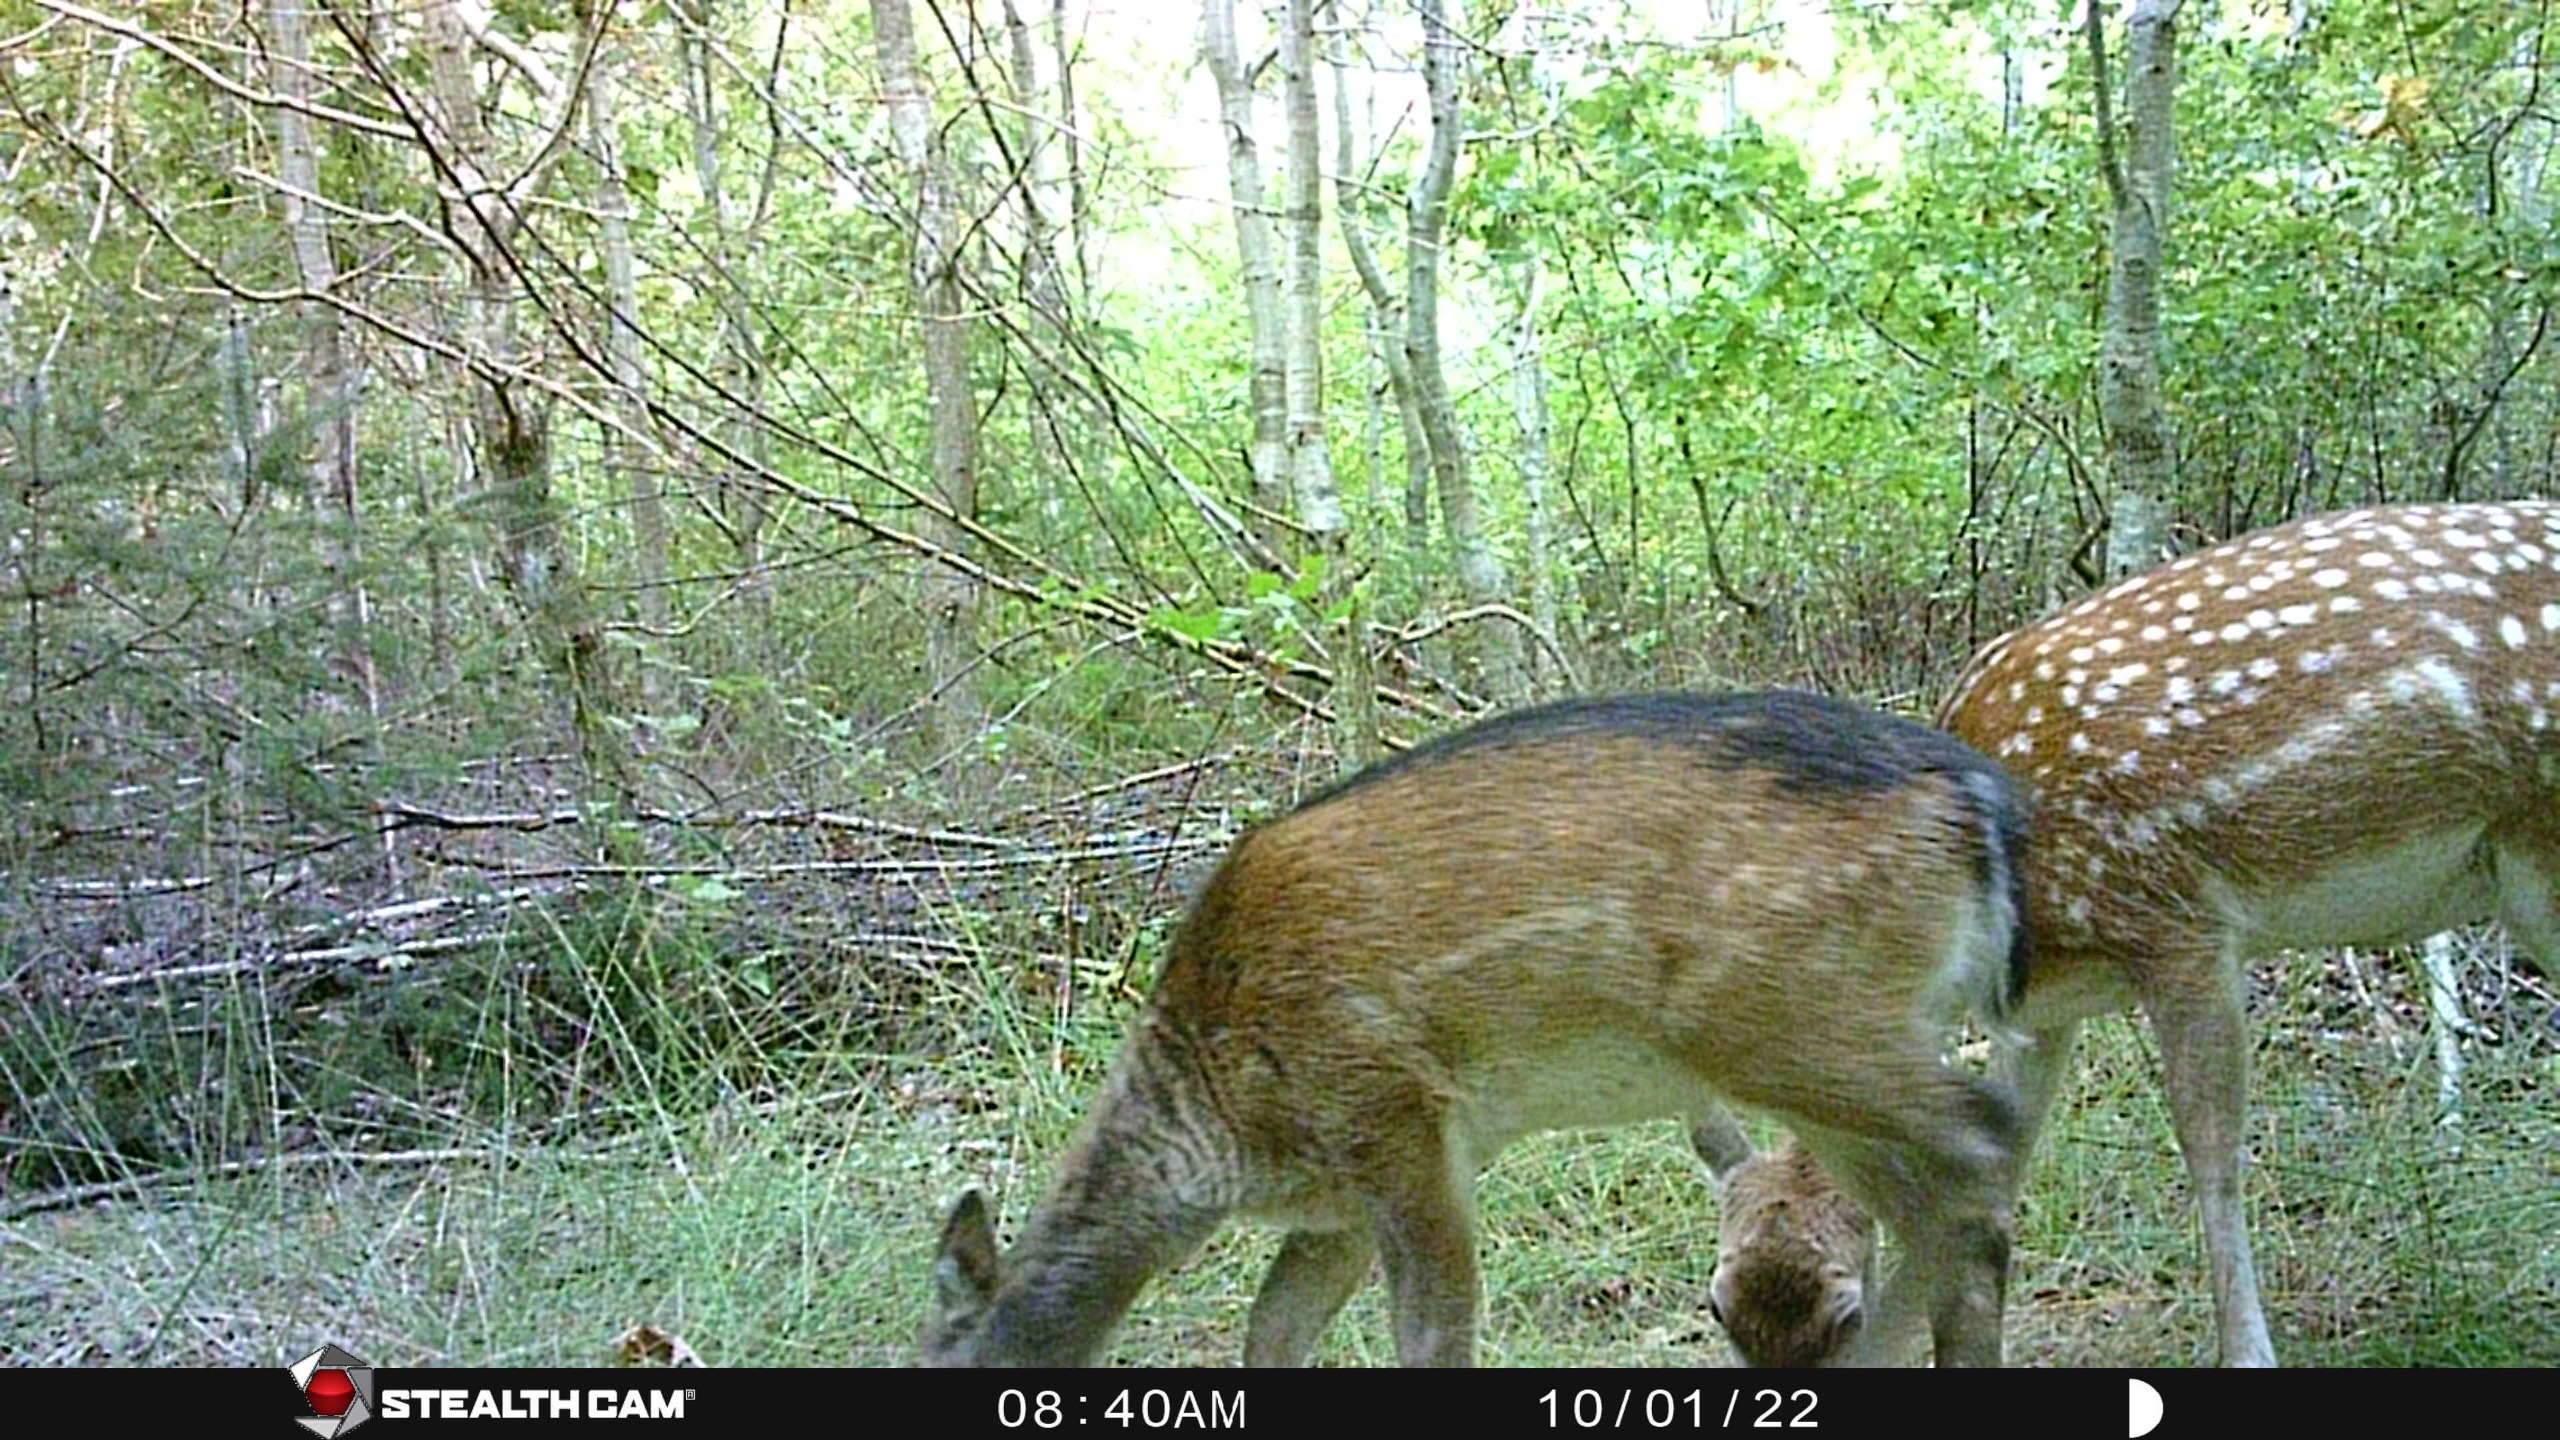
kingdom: Animalia
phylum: Chordata
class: Mammalia
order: Artiodactyla
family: Cervidae
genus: Dama
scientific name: Dama dama
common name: Dådyr
